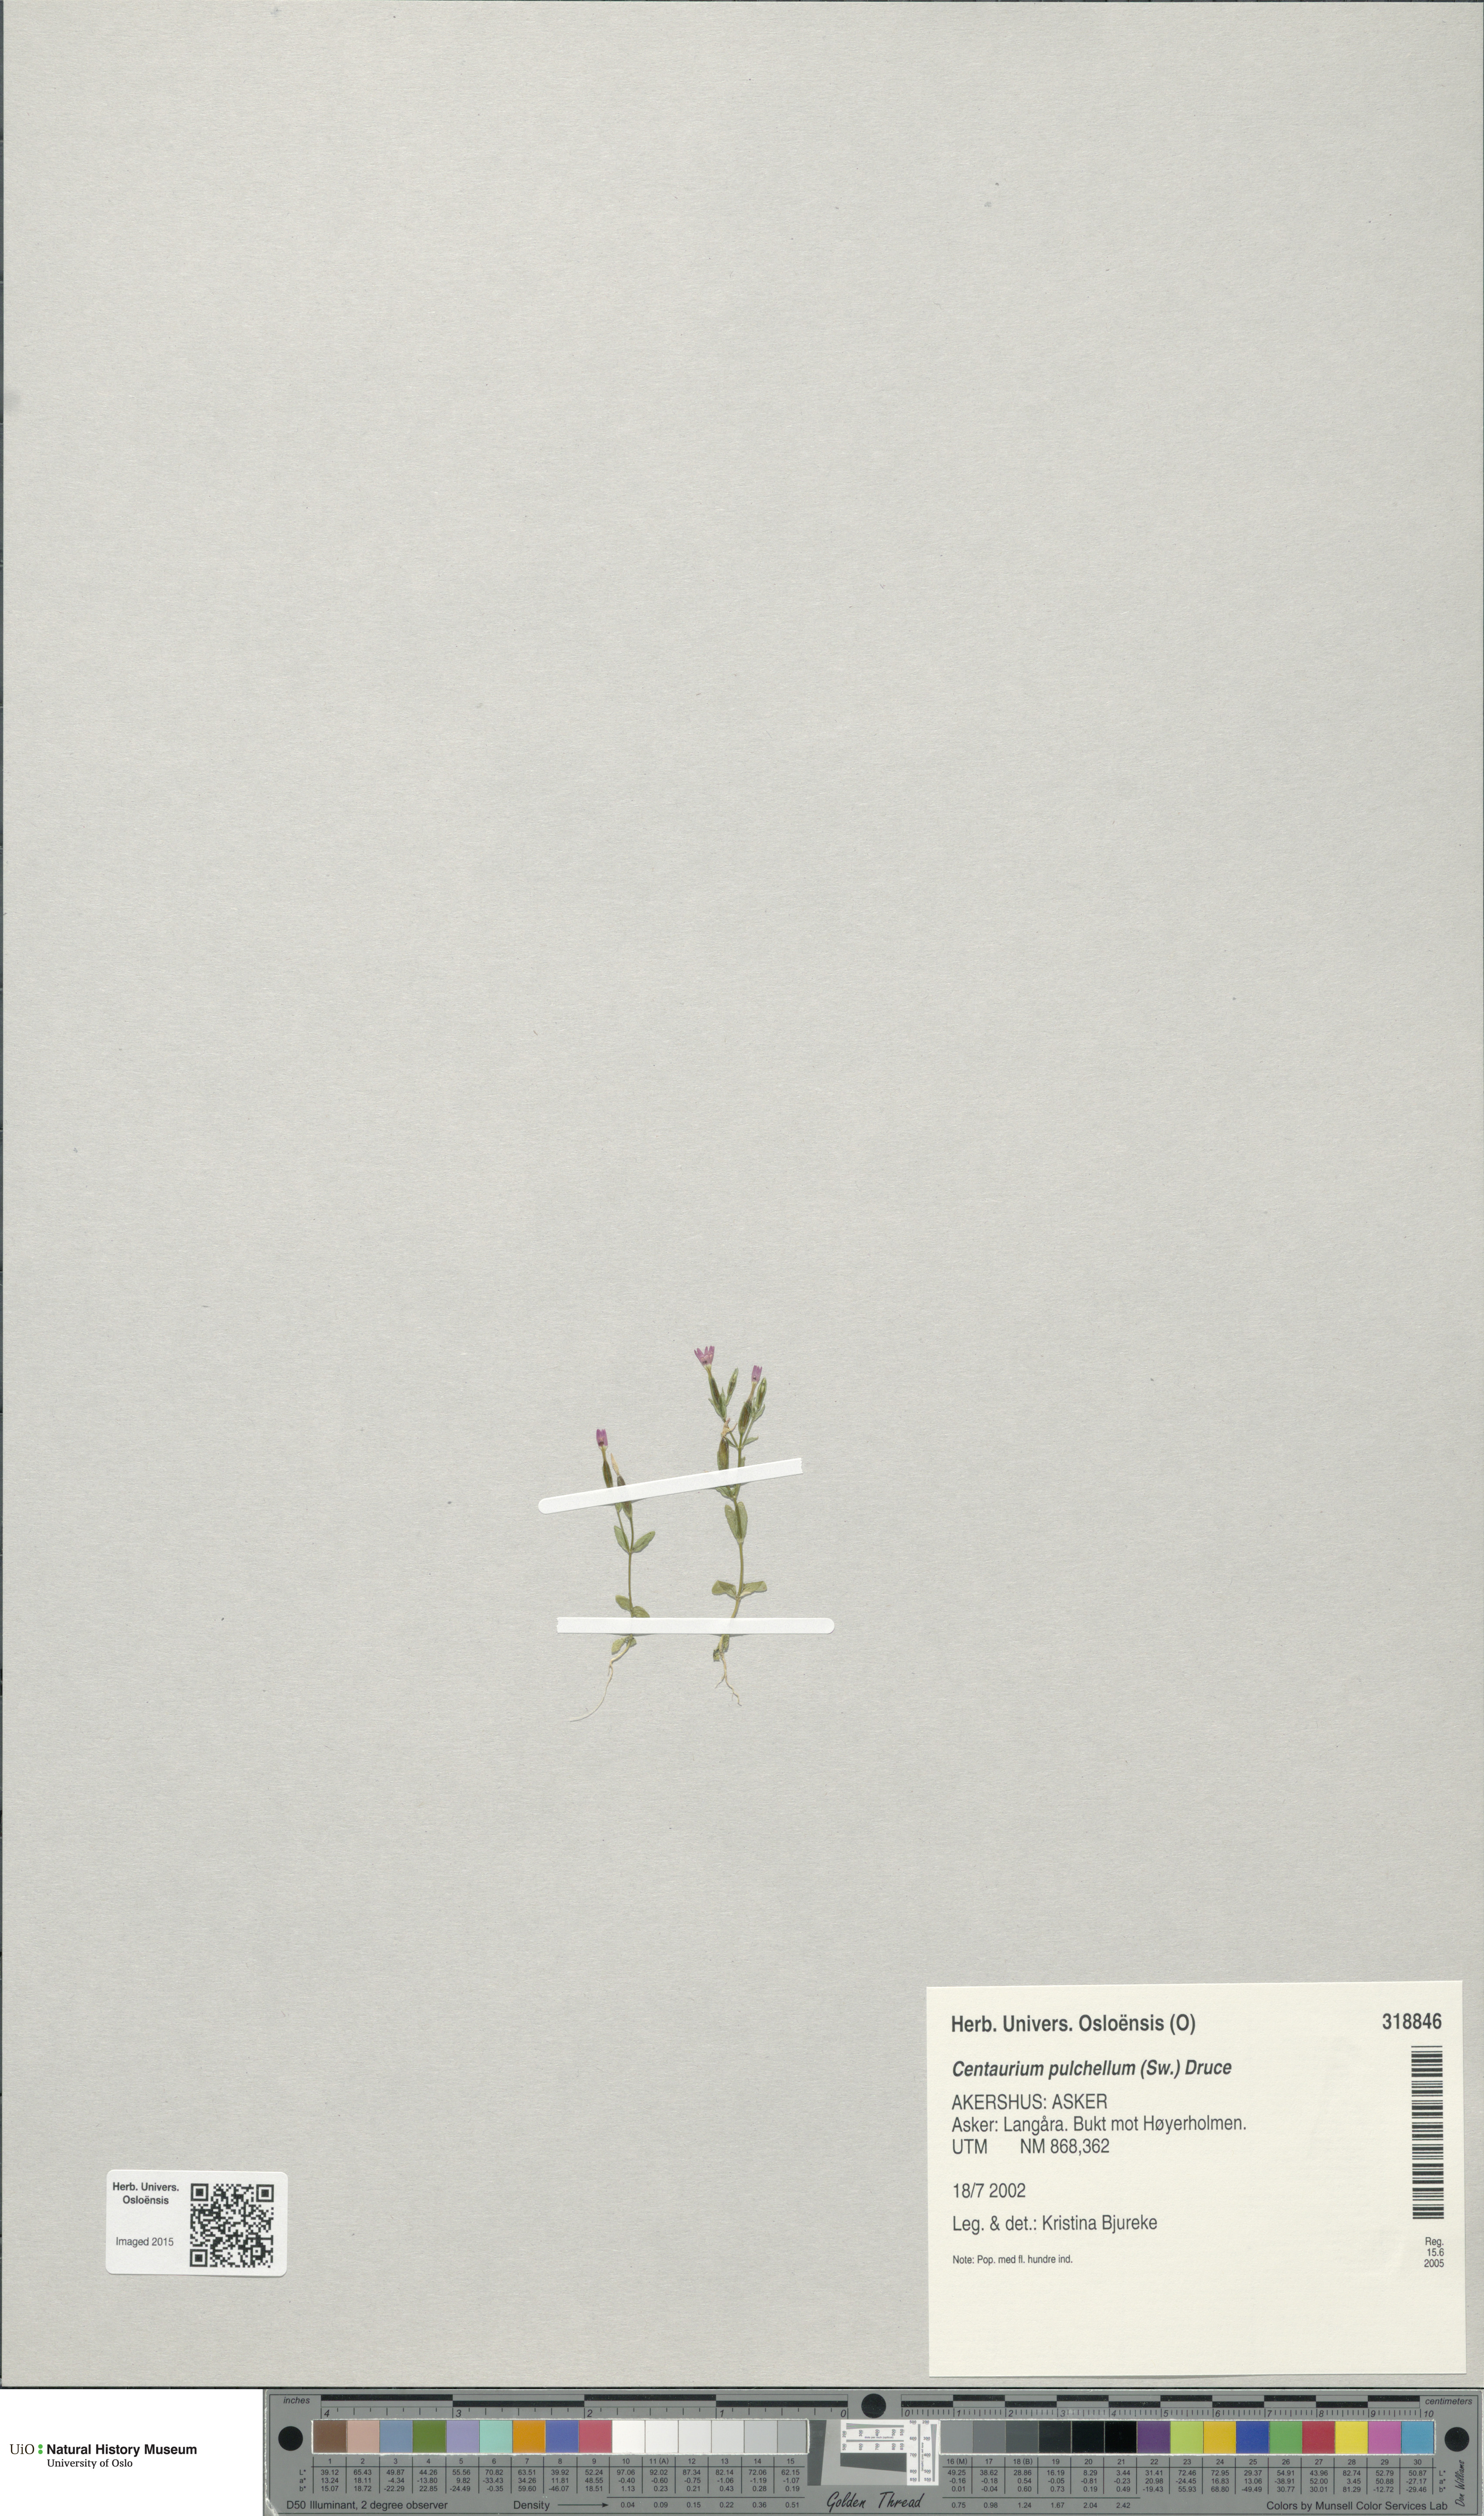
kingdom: Plantae
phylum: Tracheophyta
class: Magnoliopsida
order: Gentianales
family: Gentianaceae
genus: Centaurium
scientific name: Centaurium pulchellum
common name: Lesser centaury
